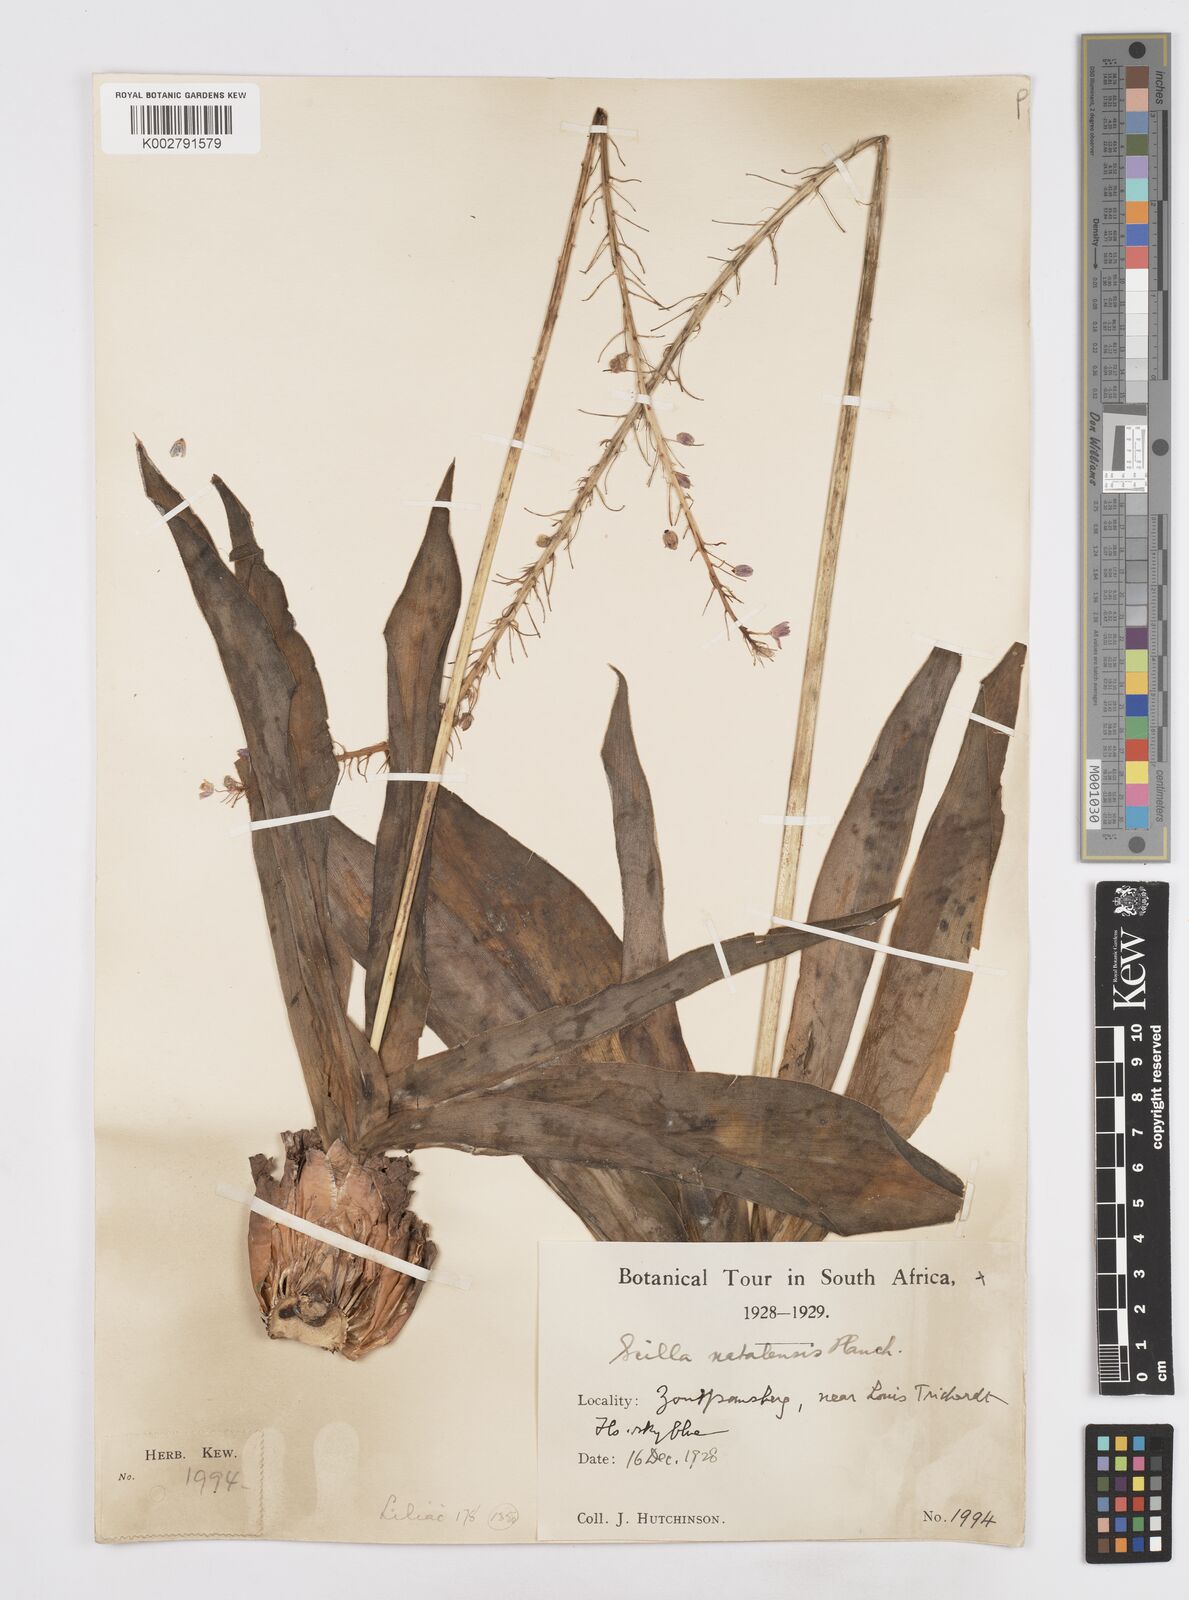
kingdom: Plantae
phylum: Tracheophyta
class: Liliopsida
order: Asparagales
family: Asparagaceae
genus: Merwilla
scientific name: Merwilla plumbea
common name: Blue-squill
